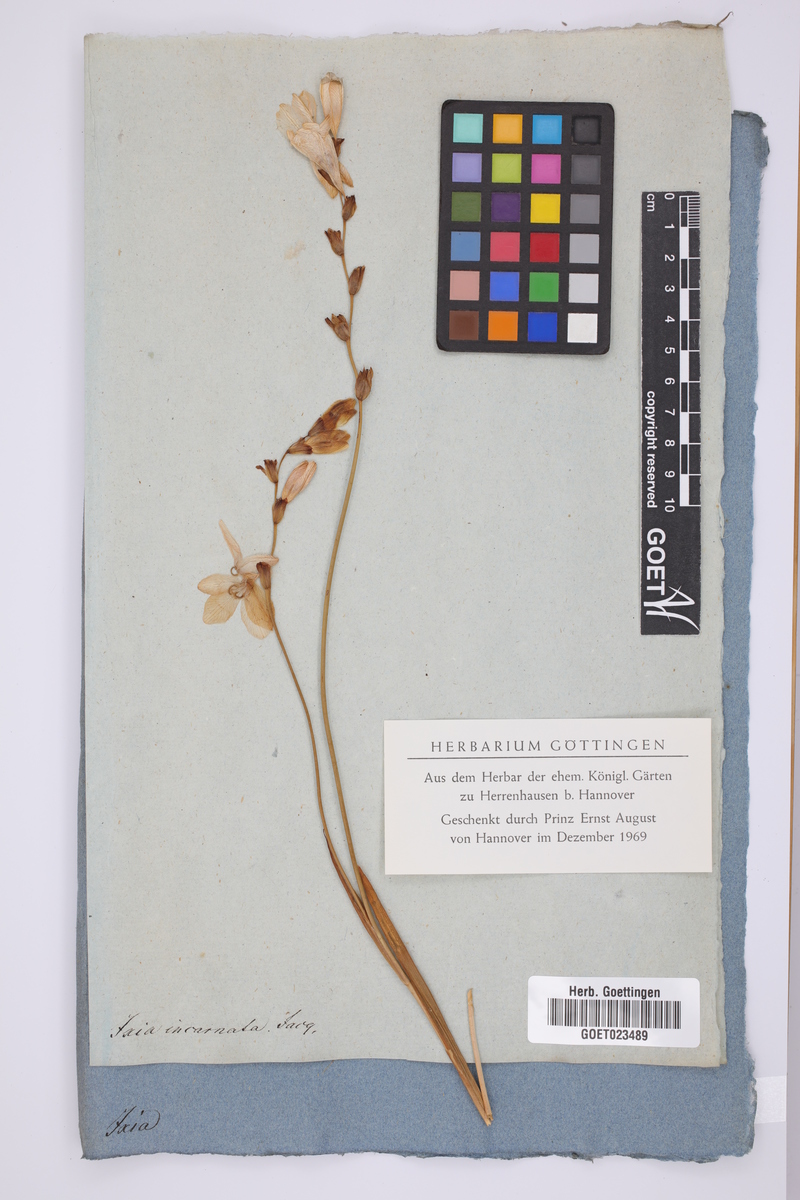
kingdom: Plantae
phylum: Tracheophyta
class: Liliopsida
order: Asparagales
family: Iridaceae
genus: Ixia
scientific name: Ixia latifolia
